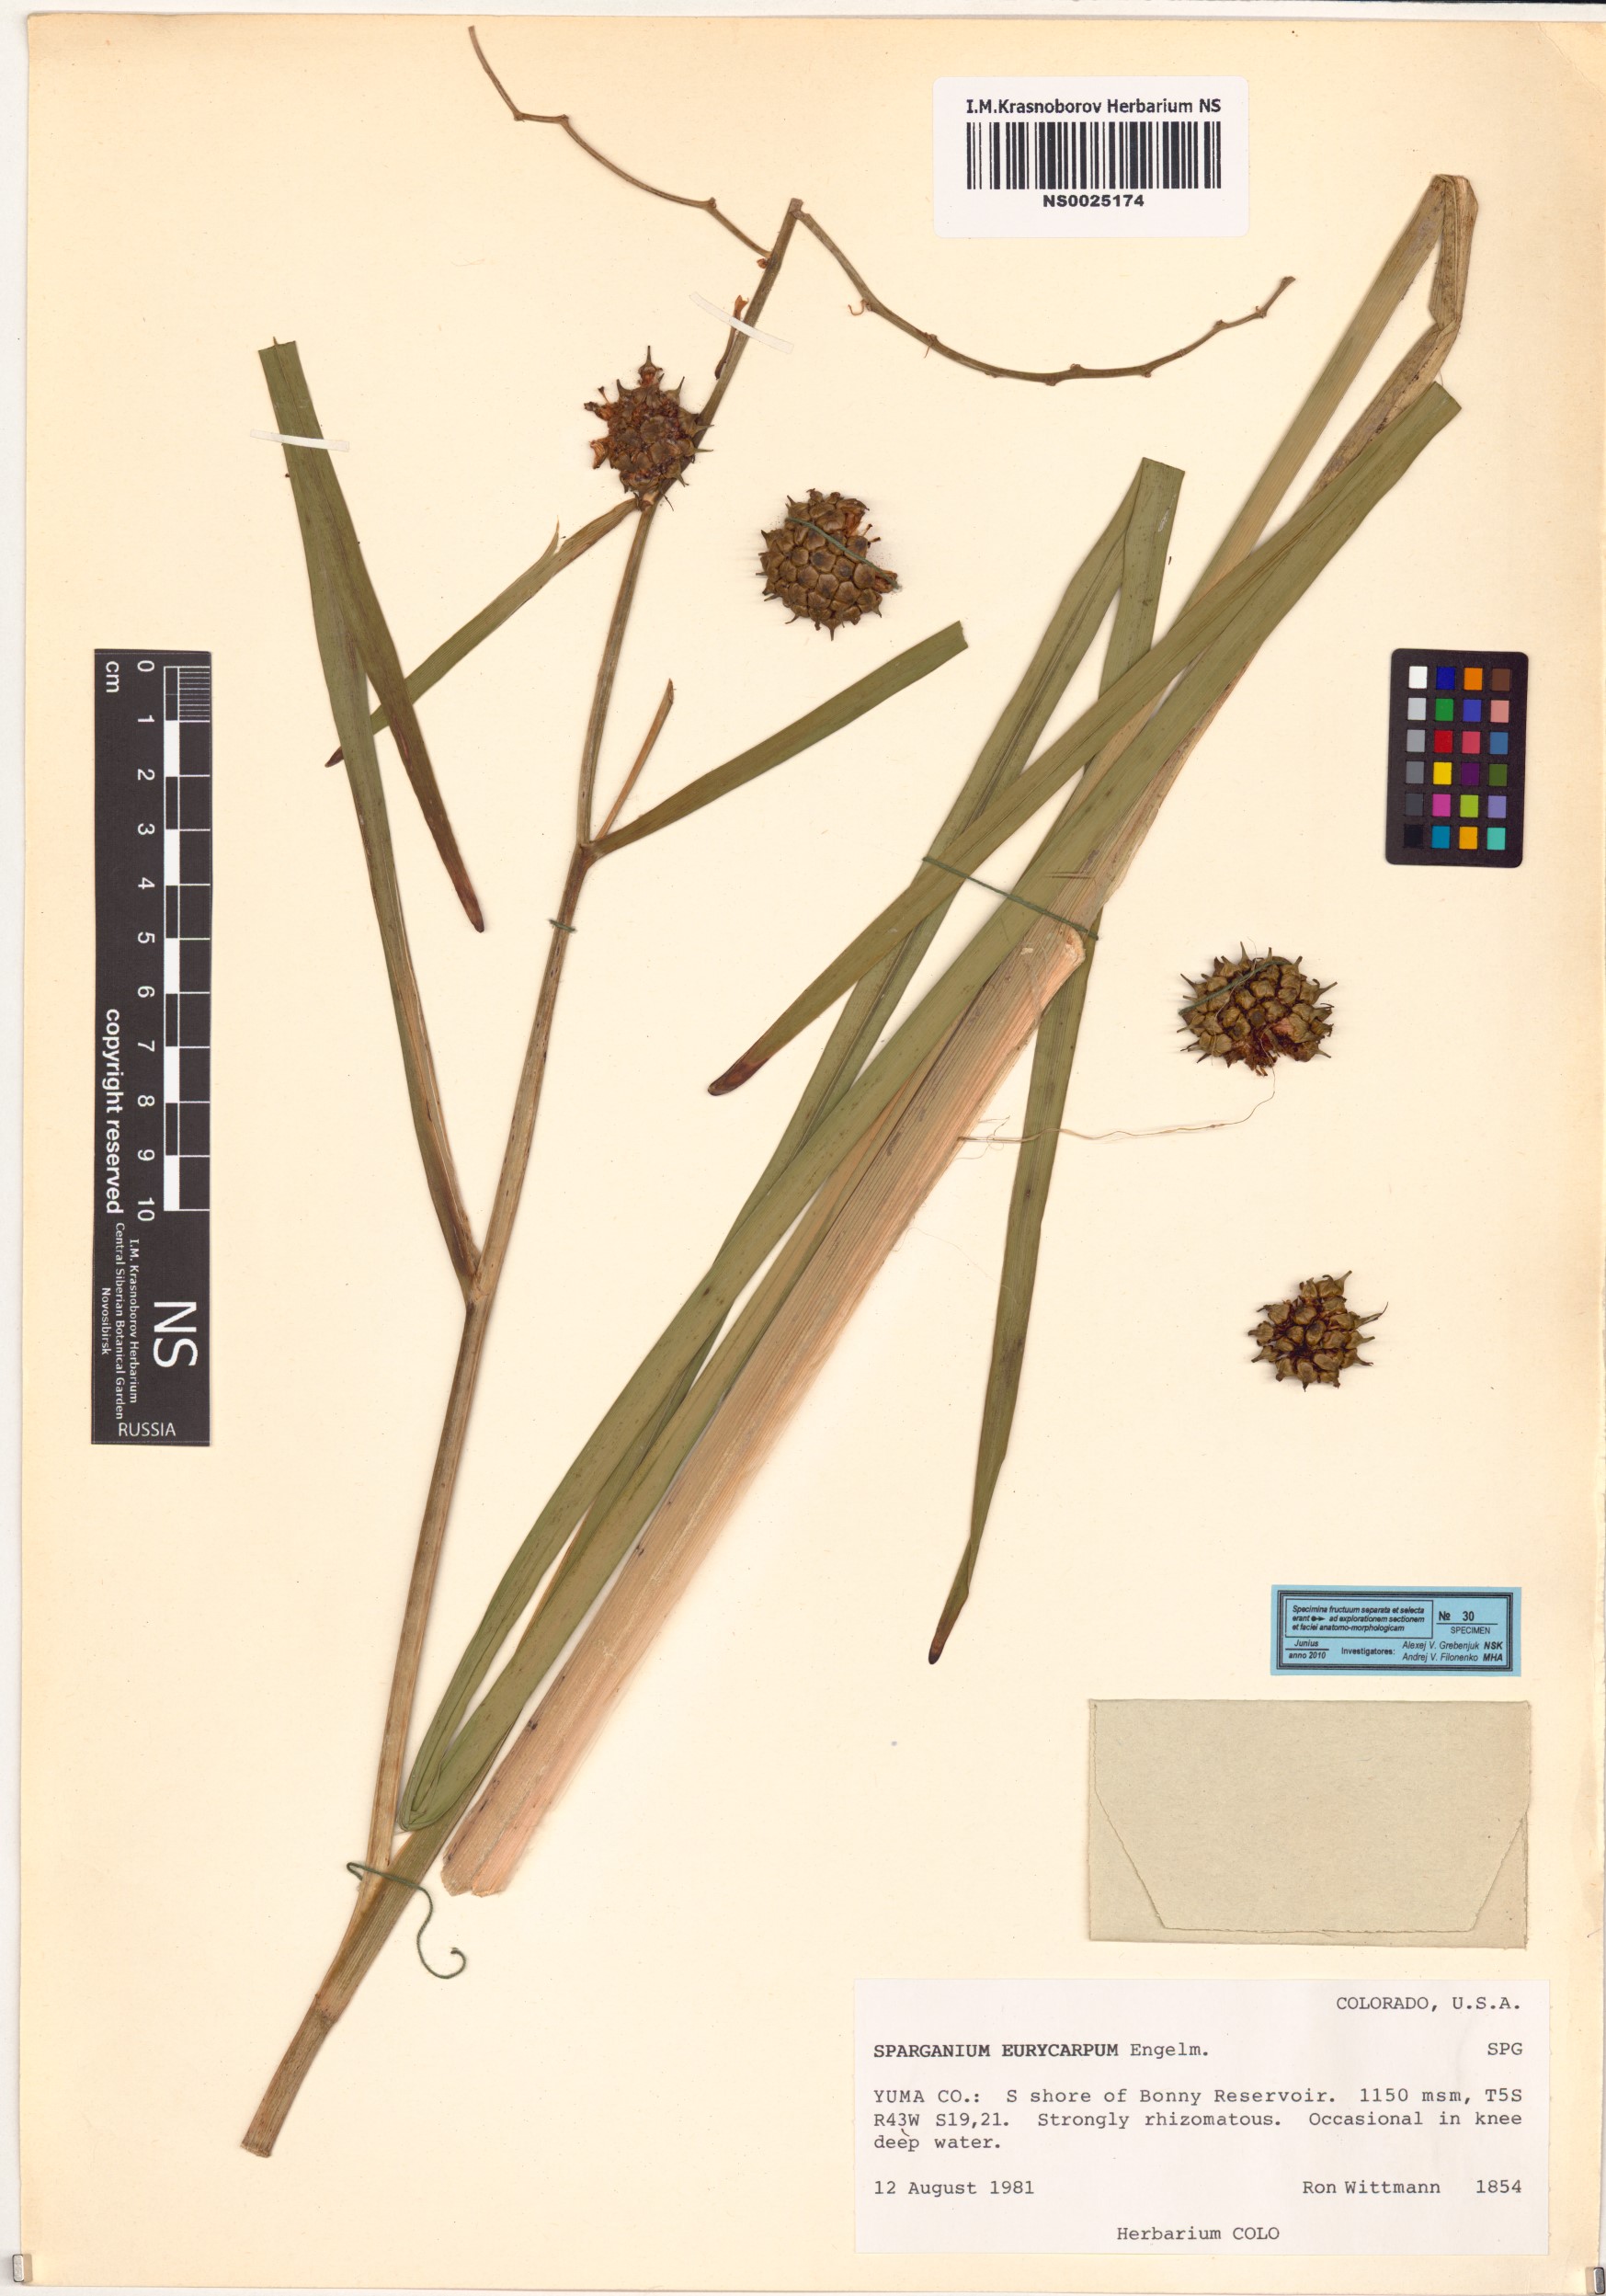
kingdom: Plantae
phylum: Tracheophyta
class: Liliopsida
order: Poales
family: Typhaceae
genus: Sparganium
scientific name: Sparganium eurycarpum
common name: Broad-fruited burreed
